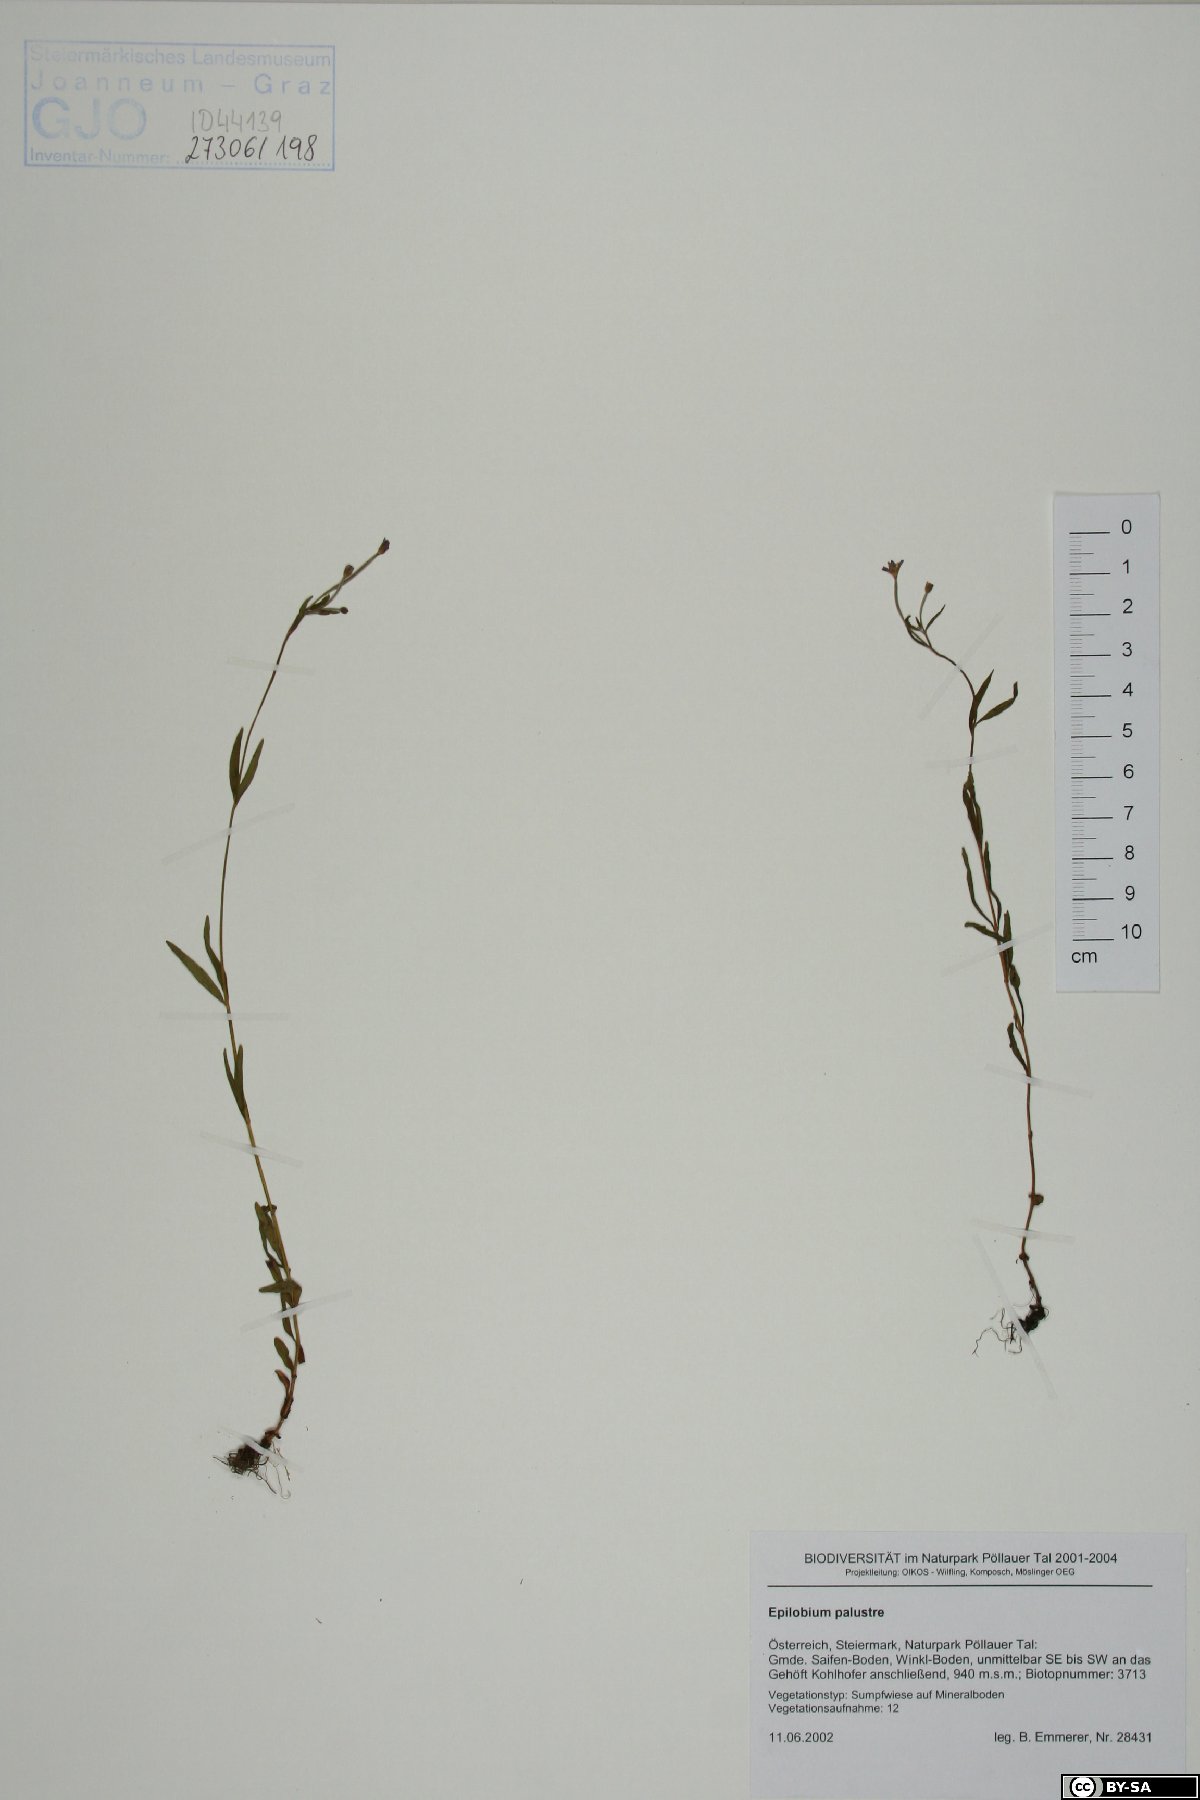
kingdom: Plantae
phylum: Tracheophyta
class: Magnoliopsida
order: Myrtales
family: Onagraceae
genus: Epilobium
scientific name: Epilobium palustre
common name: Marsh willowherb
